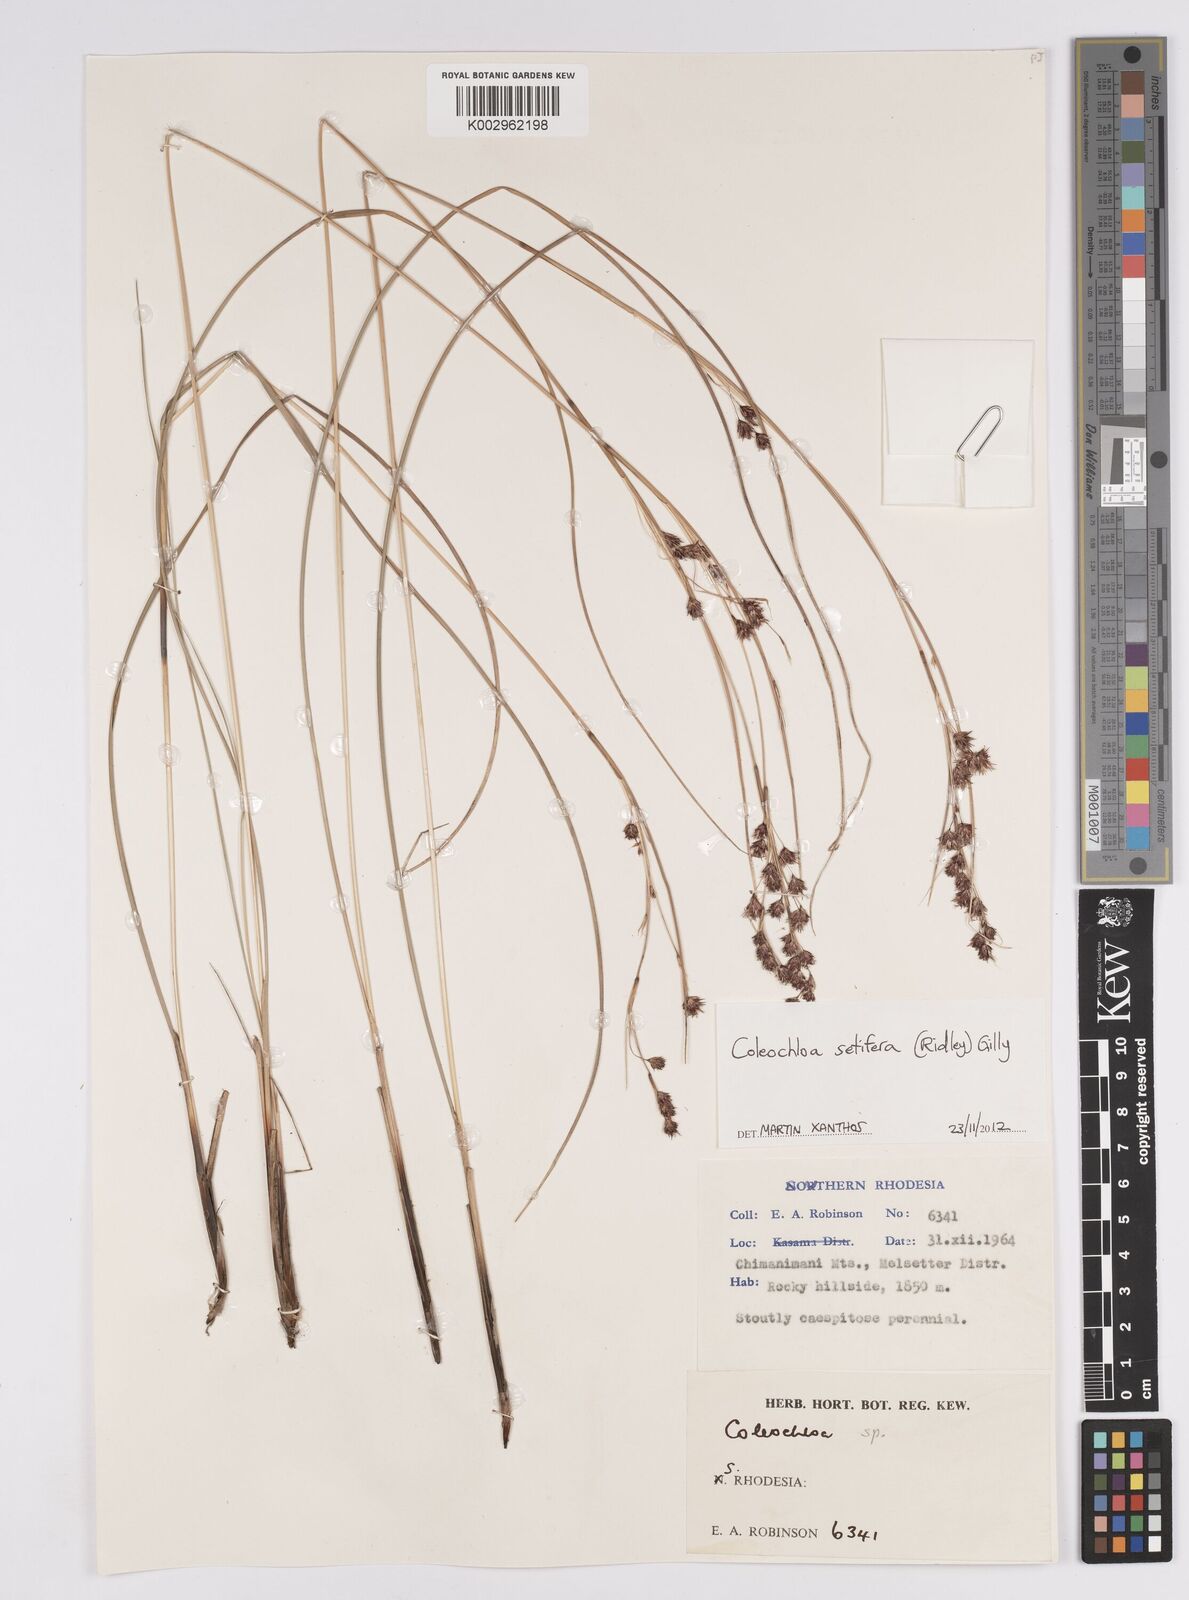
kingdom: Plantae
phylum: Tracheophyta
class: Liliopsida
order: Poales
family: Cyperaceae
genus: Coleochloa
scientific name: Coleochloa setifera
